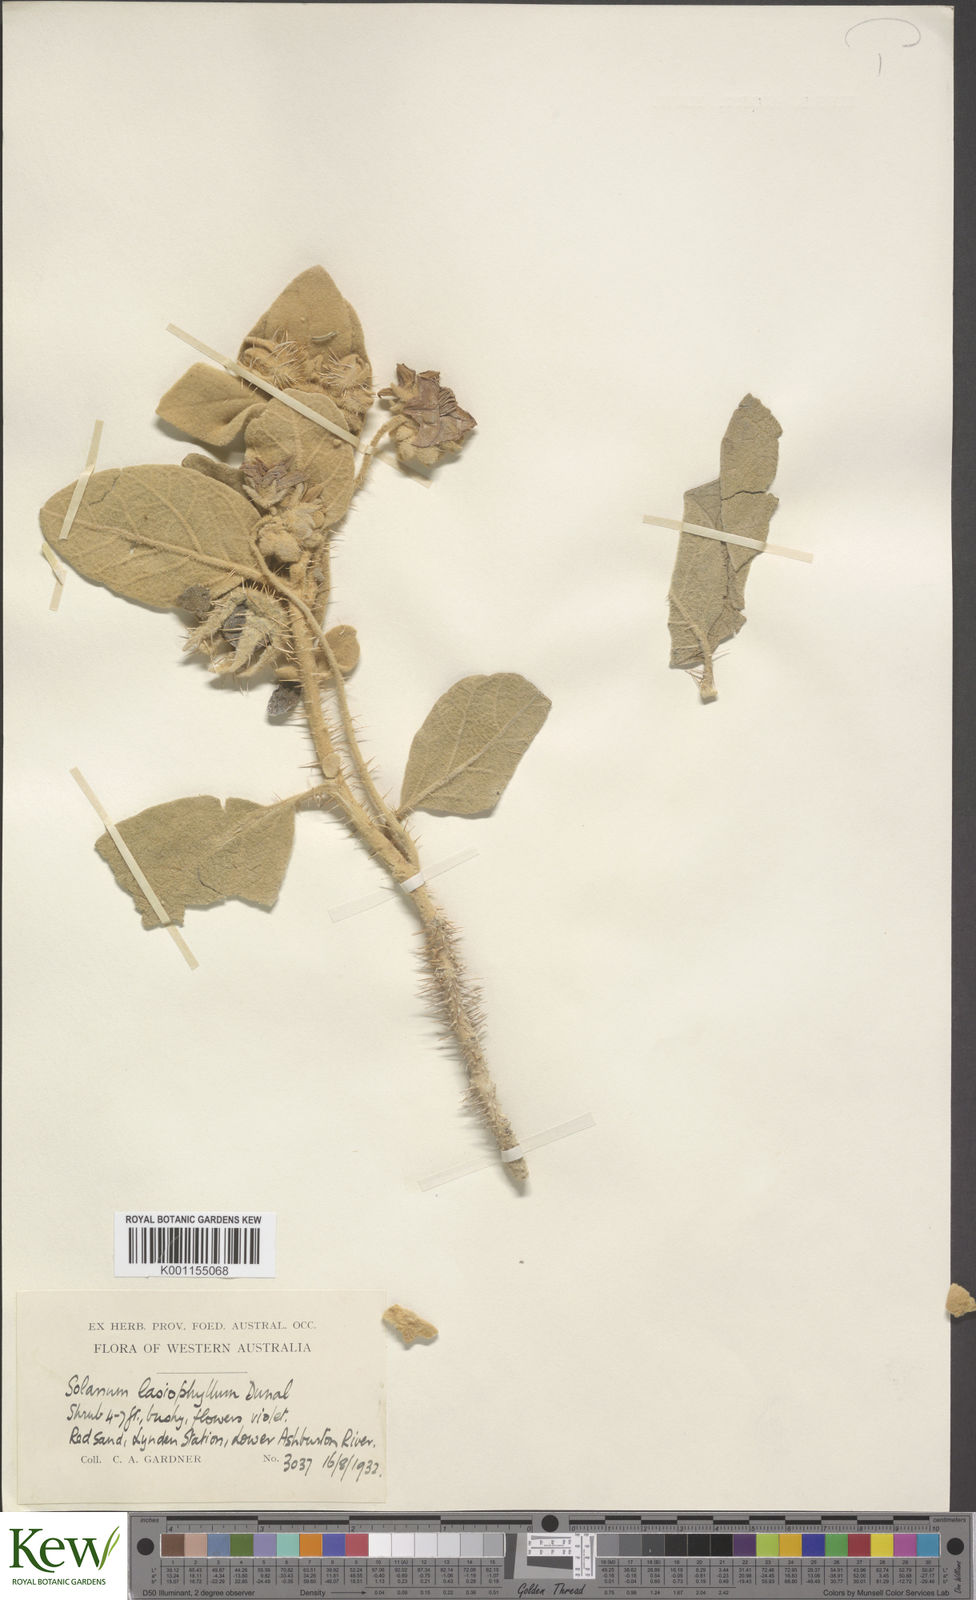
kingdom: Plantae
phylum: Tracheophyta
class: Magnoliopsida
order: Solanales
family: Solanaceae
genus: Solanum
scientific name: Solanum phlomoides
